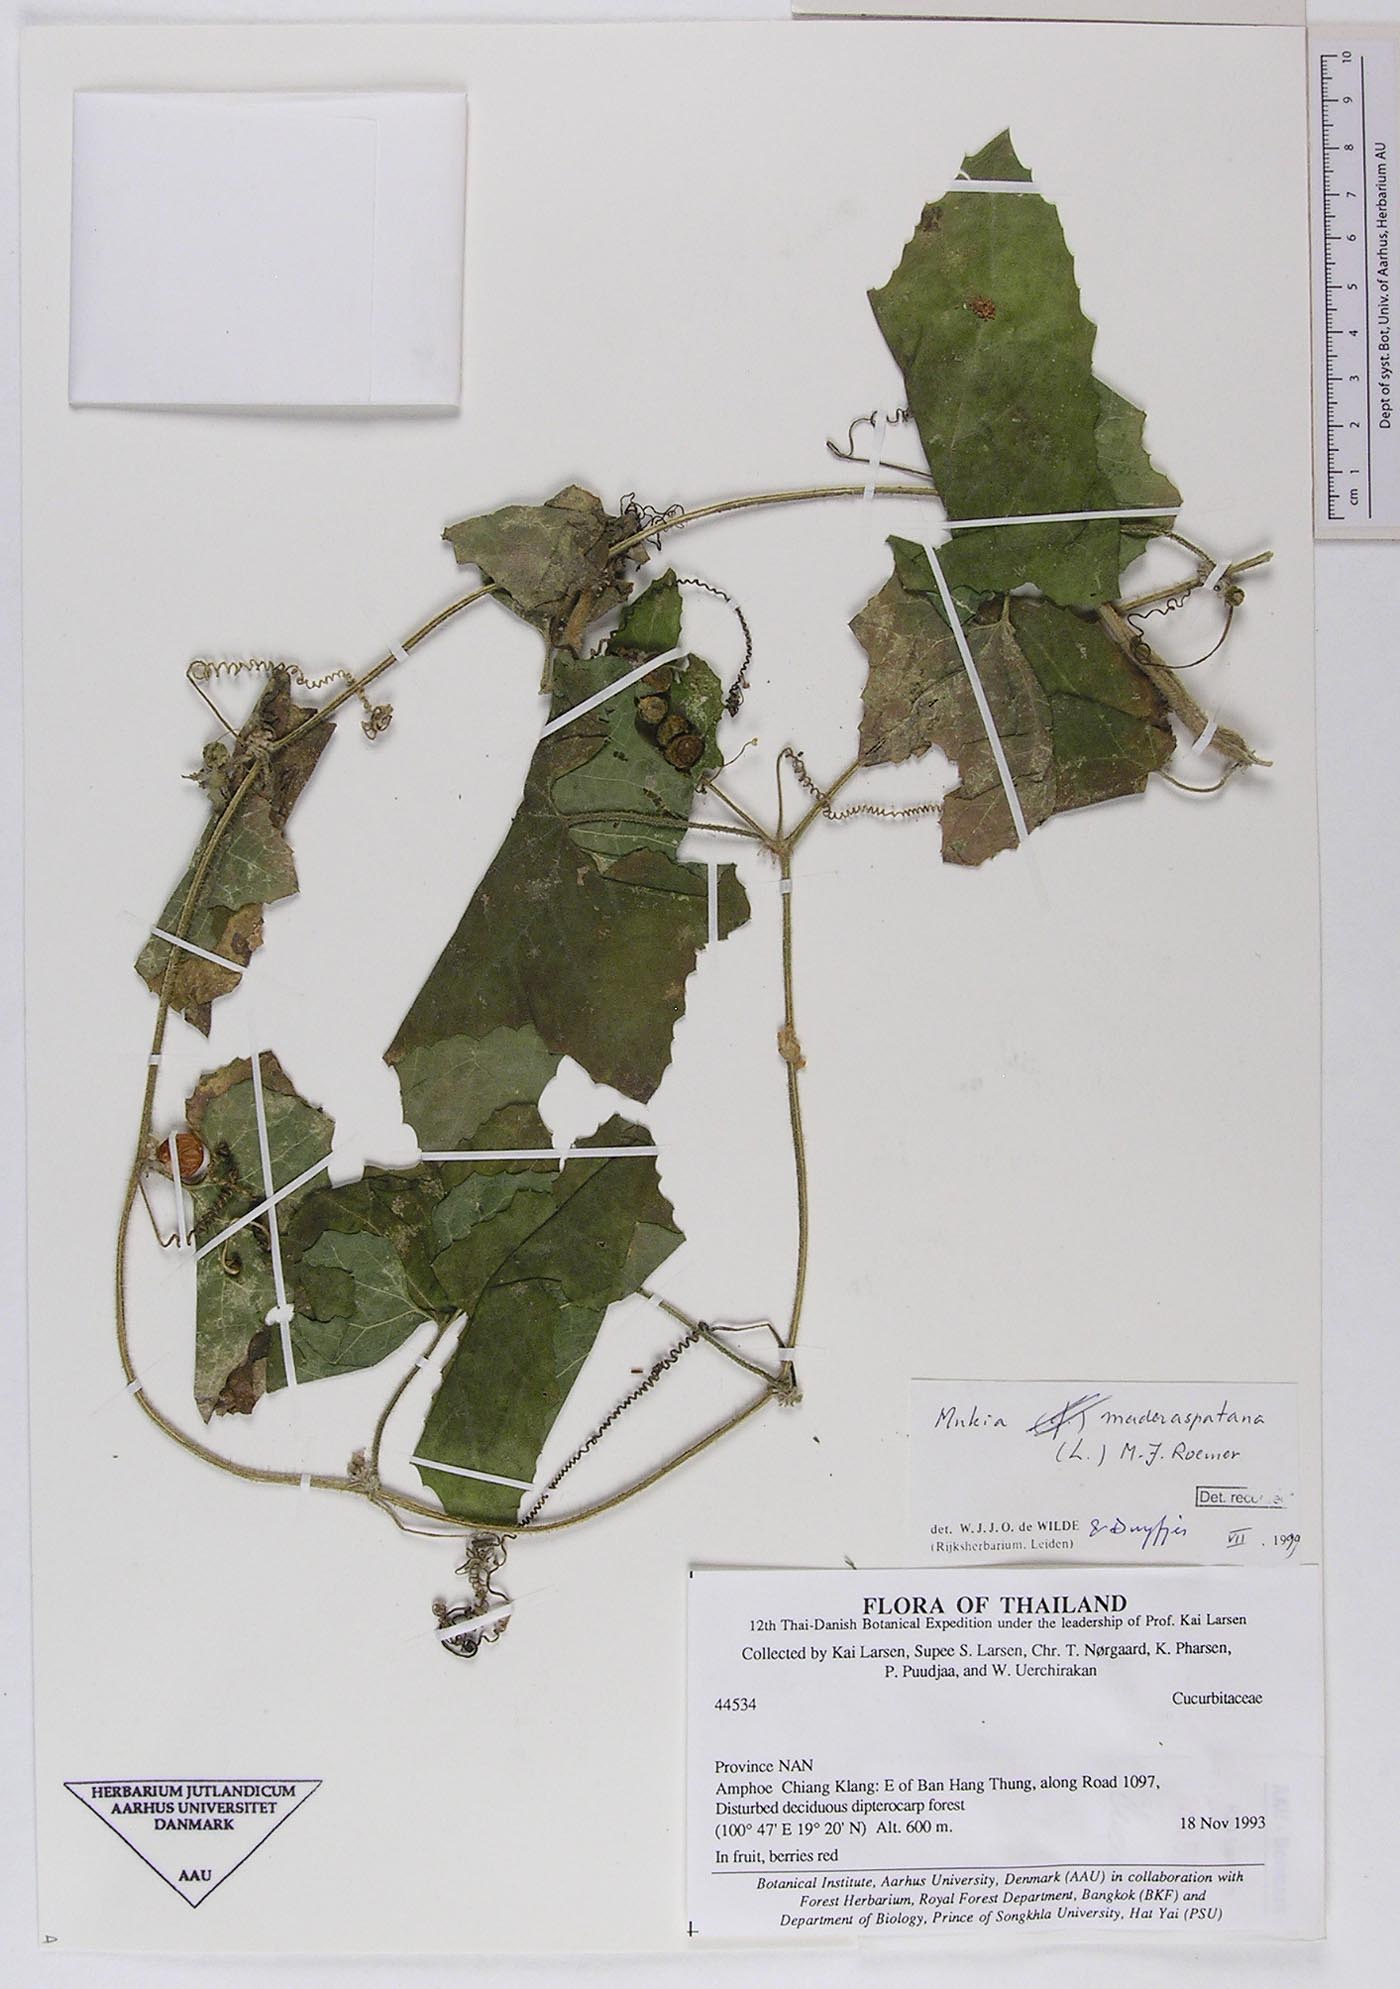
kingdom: Plantae
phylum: Tracheophyta
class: Magnoliopsida
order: Cucurbitales
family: Cucurbitaceae
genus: Cucumis
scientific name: Cucumis maderaspatanus
